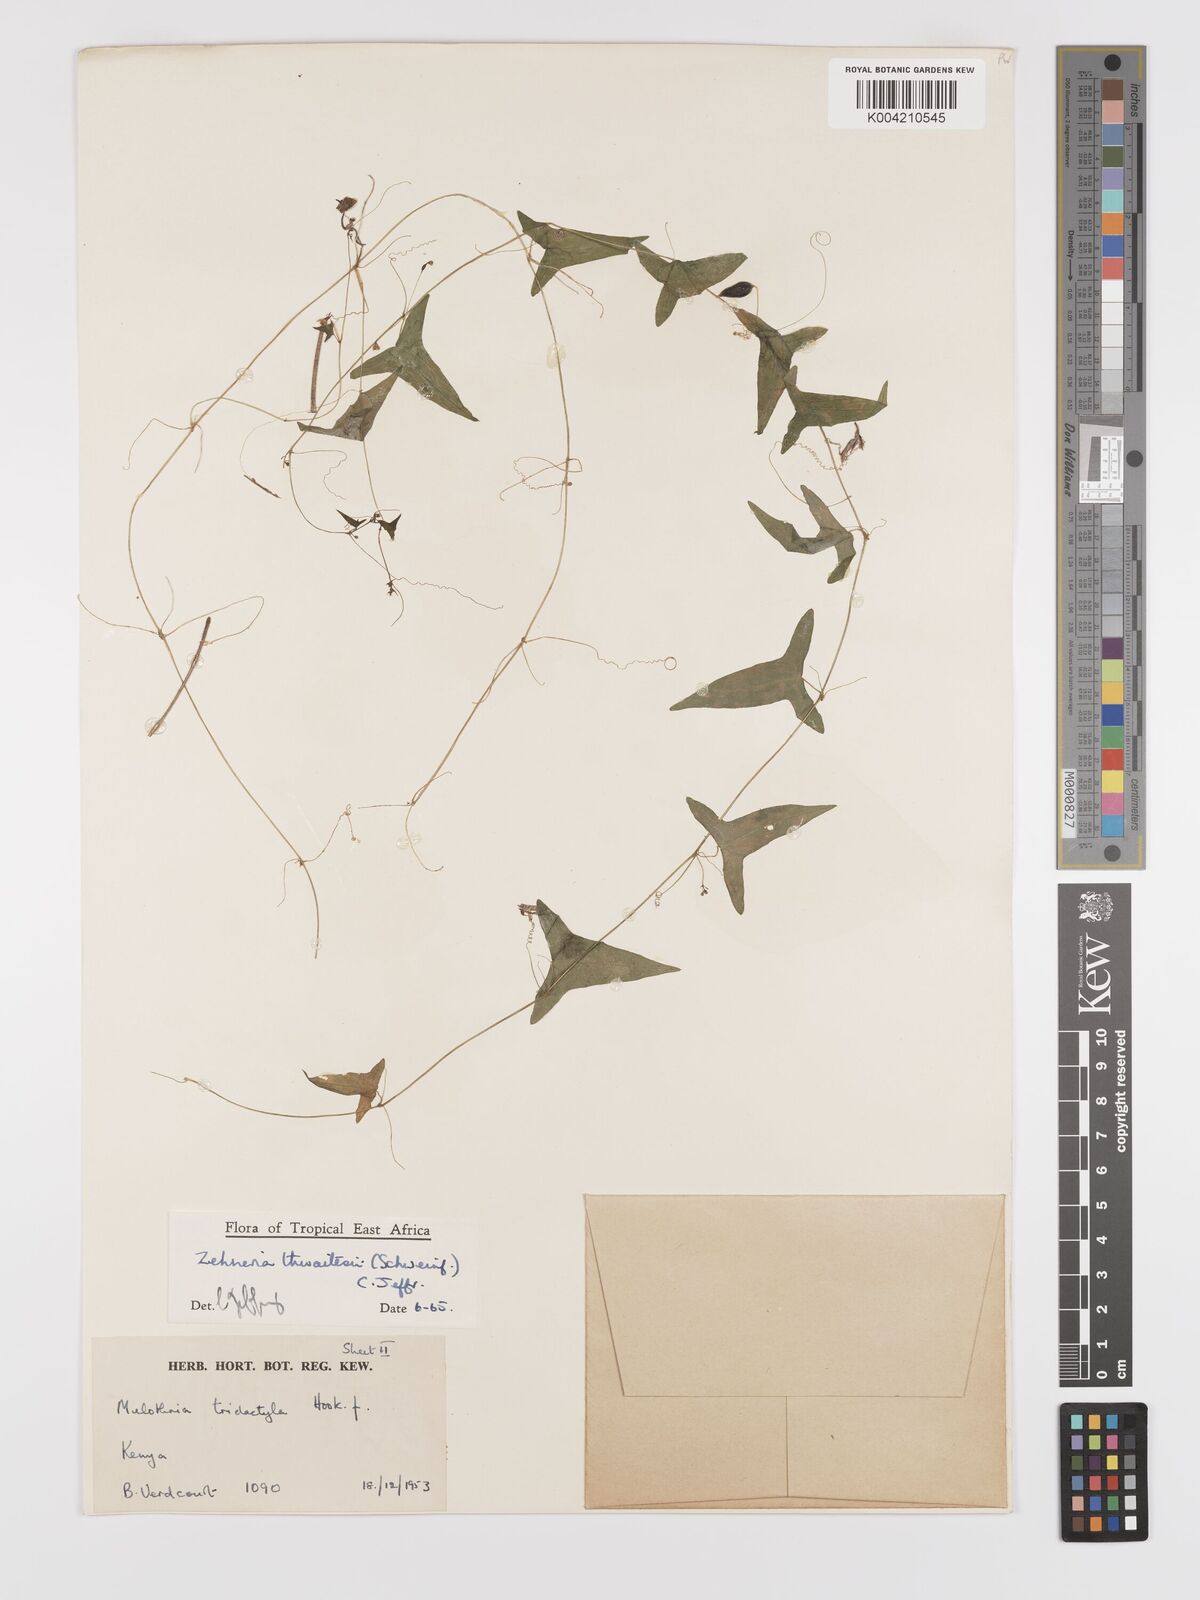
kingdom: Plantae
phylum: Tracheophyta
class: Magnoliopsida
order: Cucurbitales
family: Cucurbitaceae
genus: Zehneria
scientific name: Zehneria thwaitesii
